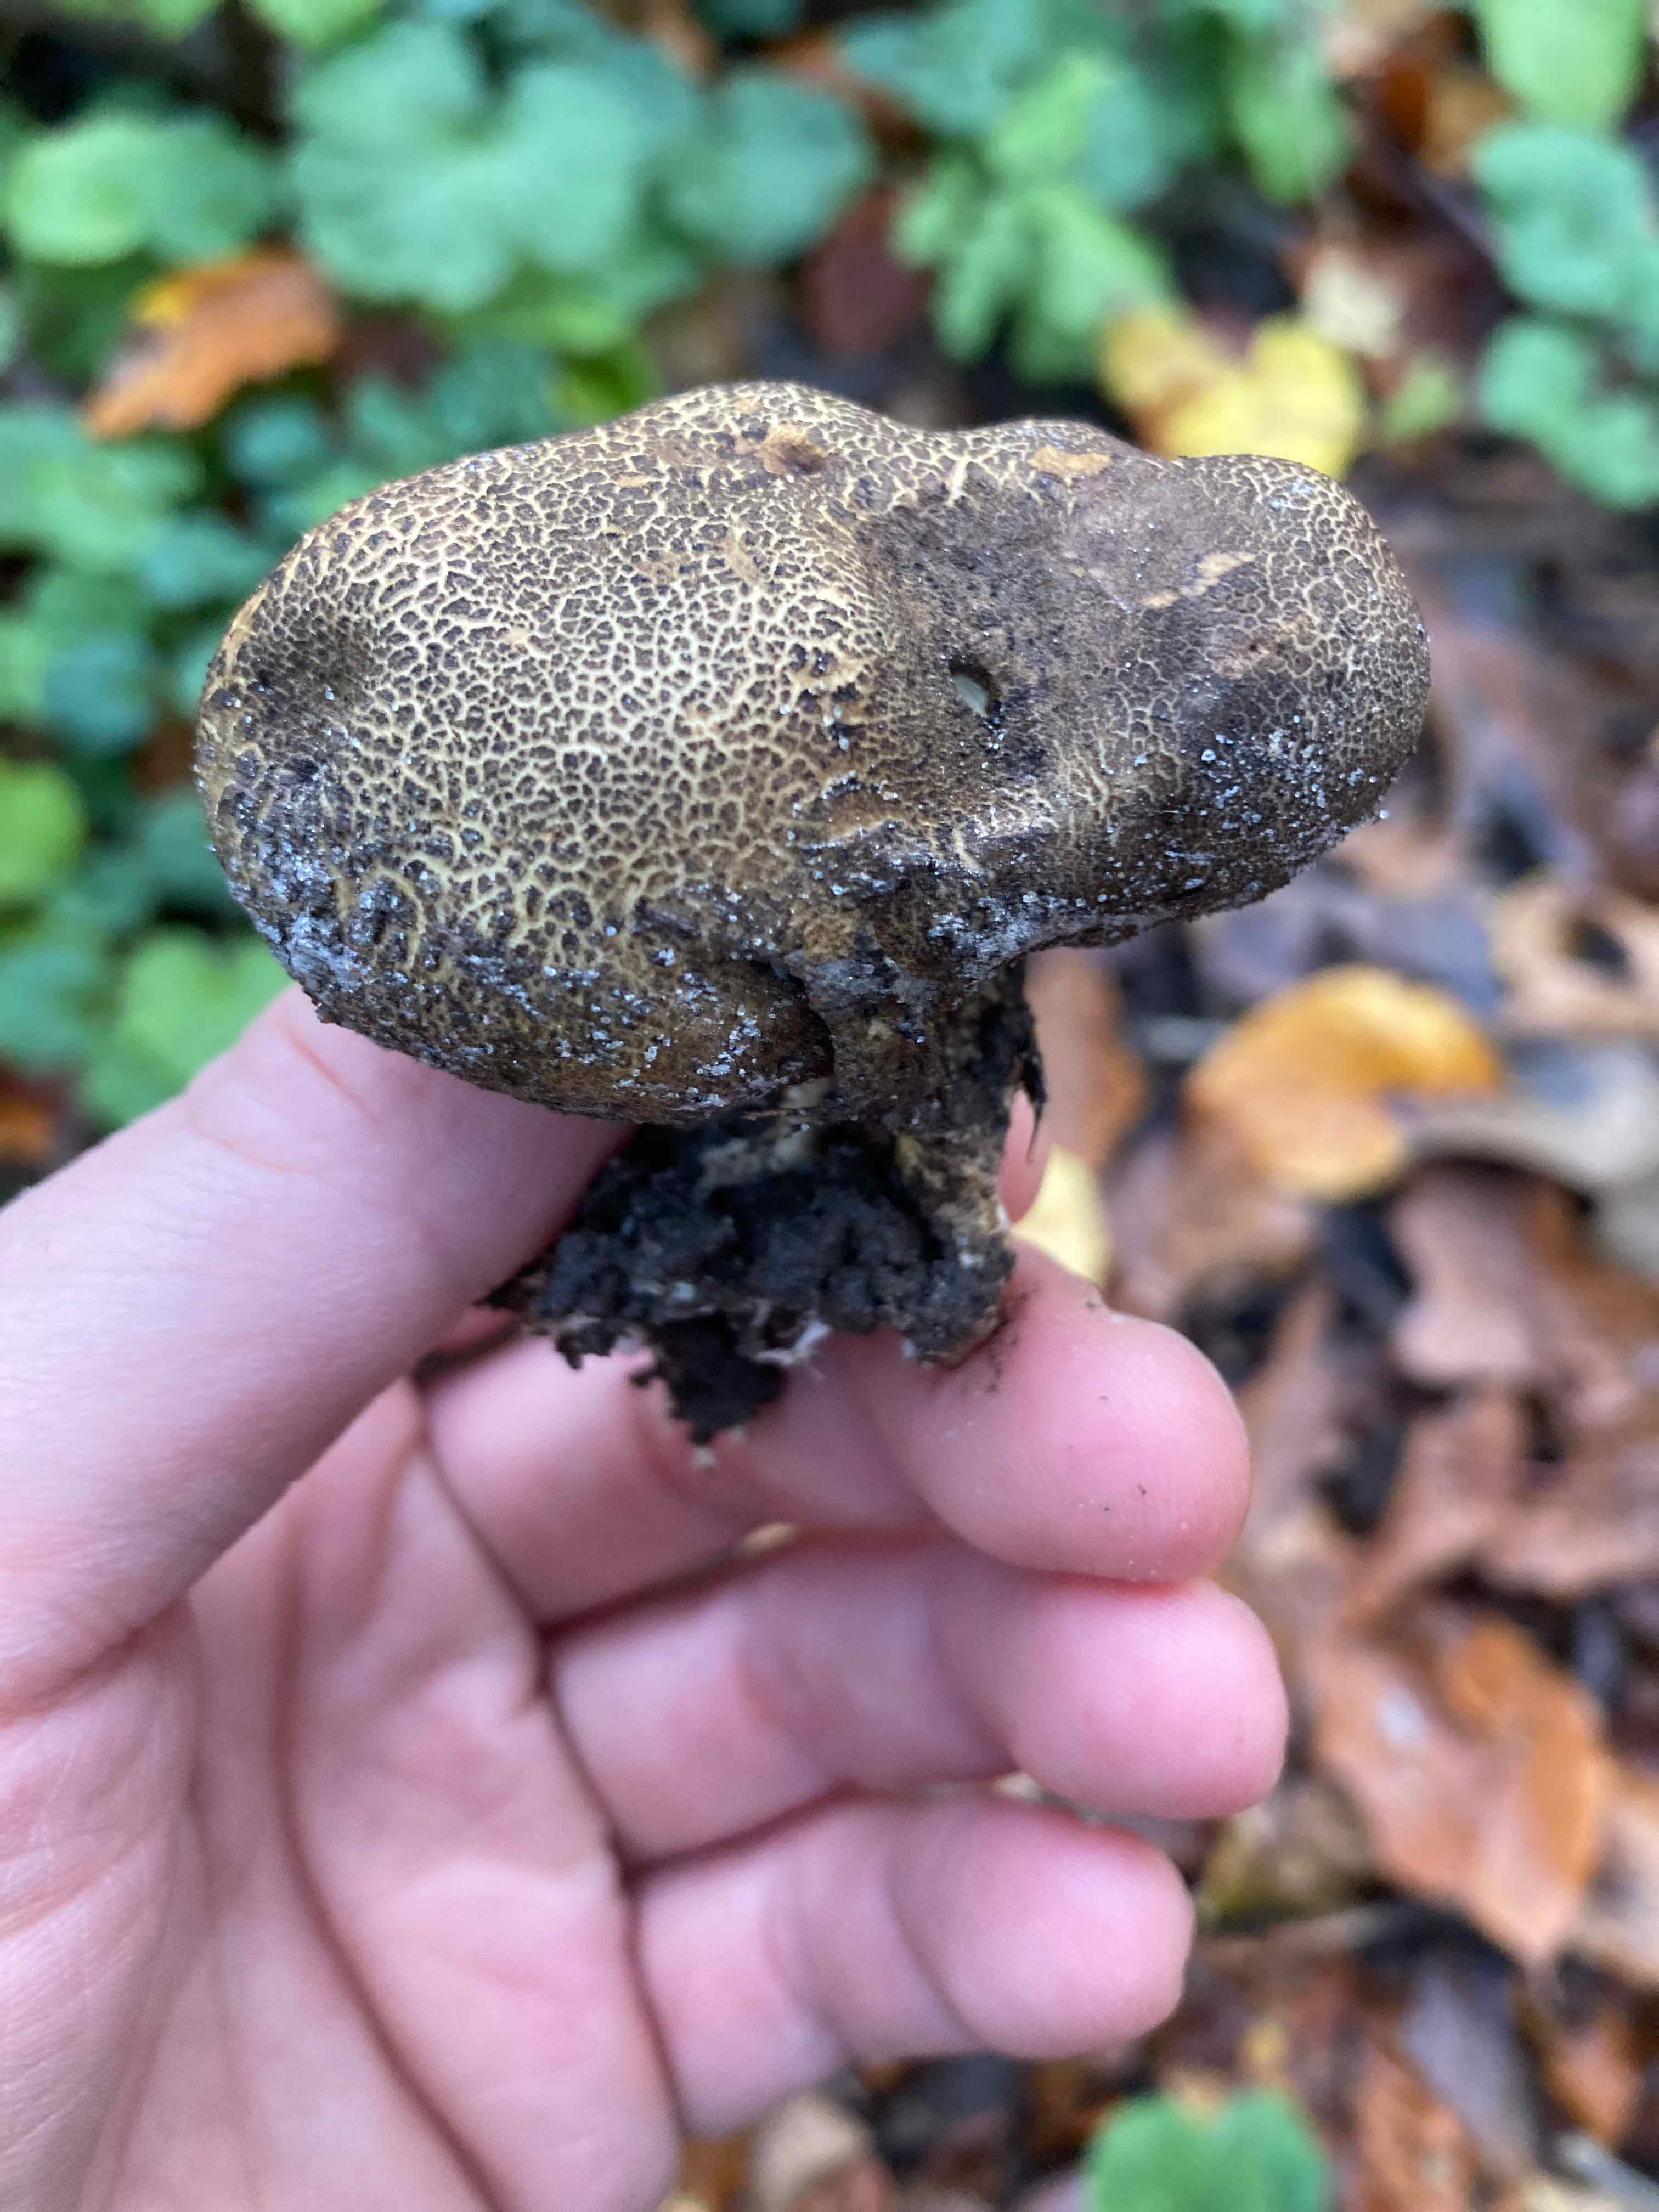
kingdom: Fungi
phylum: Basidiomycota
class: Agaricomycetes
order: Boletales
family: Sclerodermataceae
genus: Scleroderma
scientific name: Scleroderma verrucosum
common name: stilket bruskbold
